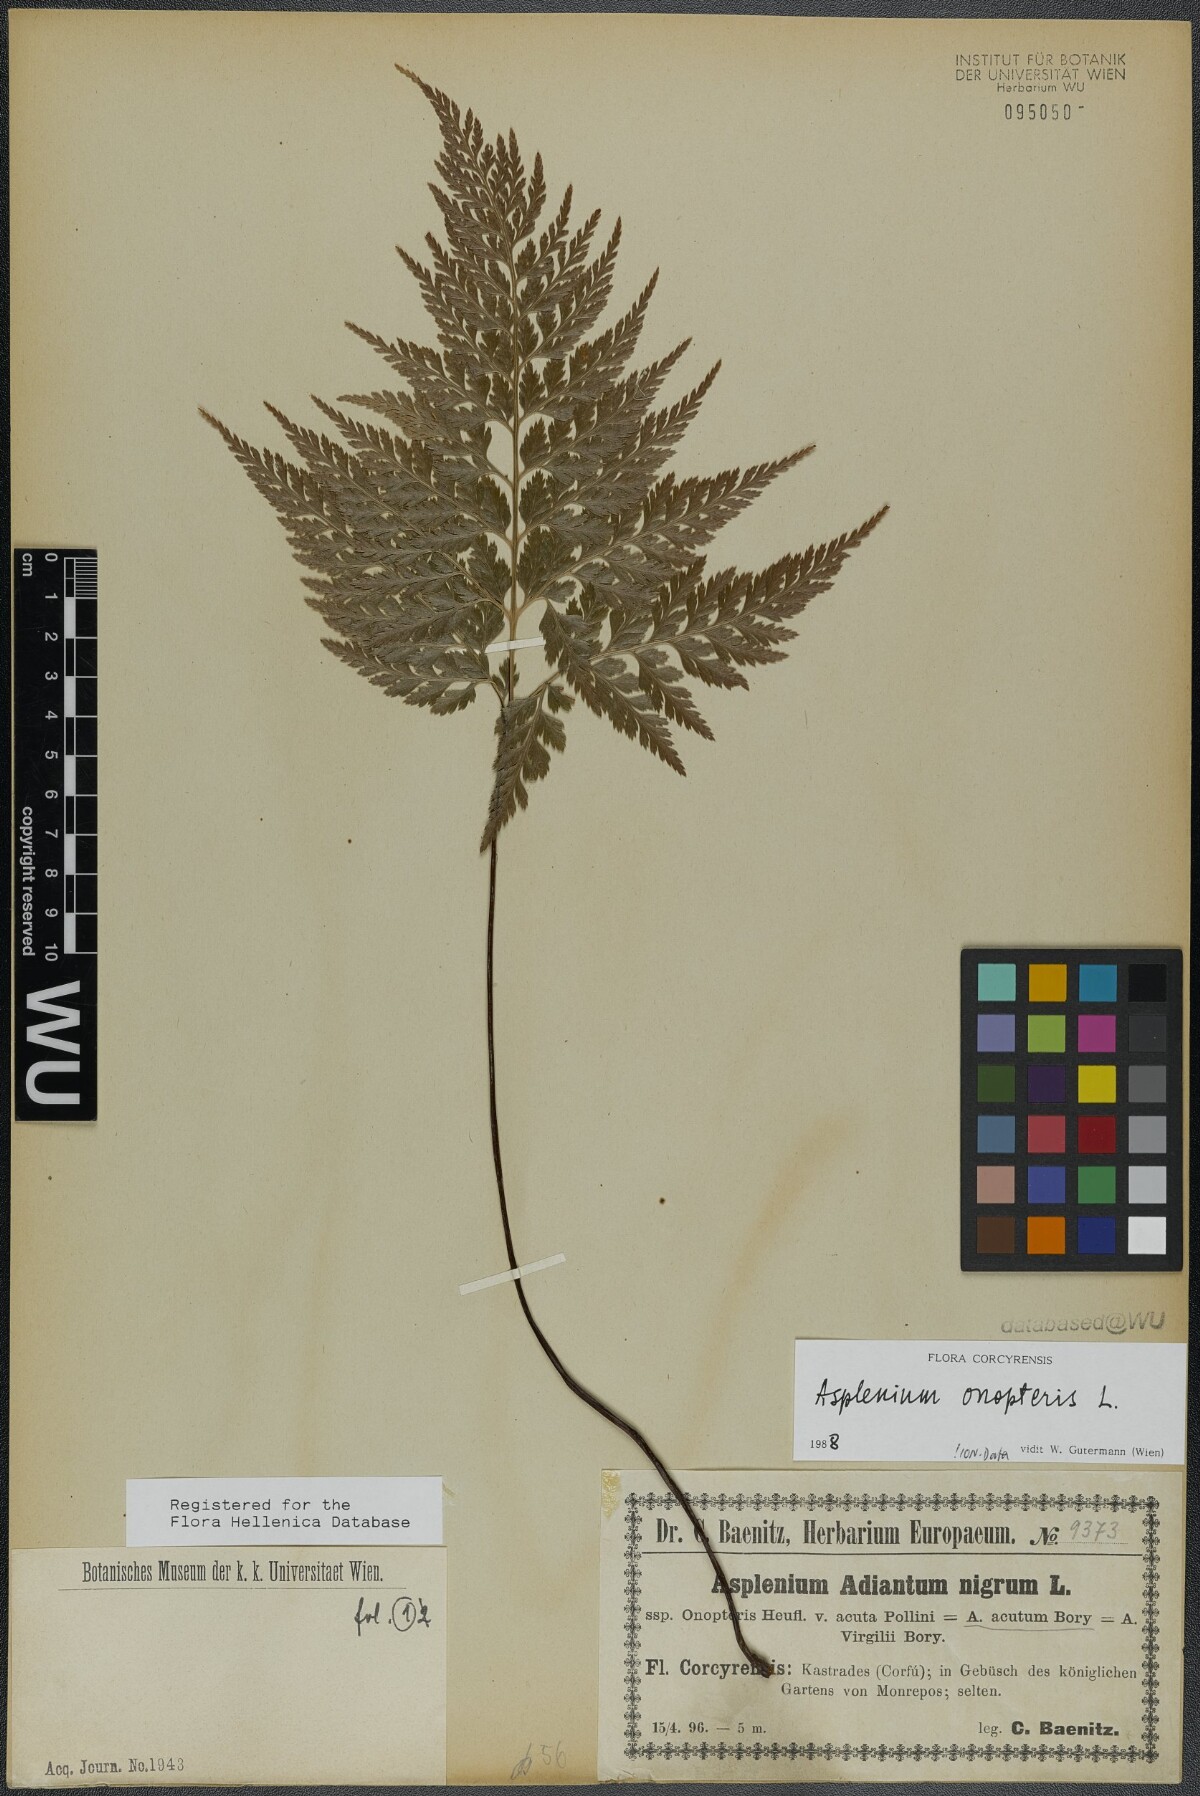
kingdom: Plantae
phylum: Tracheophyta
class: Polypodiopsida
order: Polypodiales
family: Aspleniaceae
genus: Asplenium
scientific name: Asplenium onopteris
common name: Irish spleenwort
